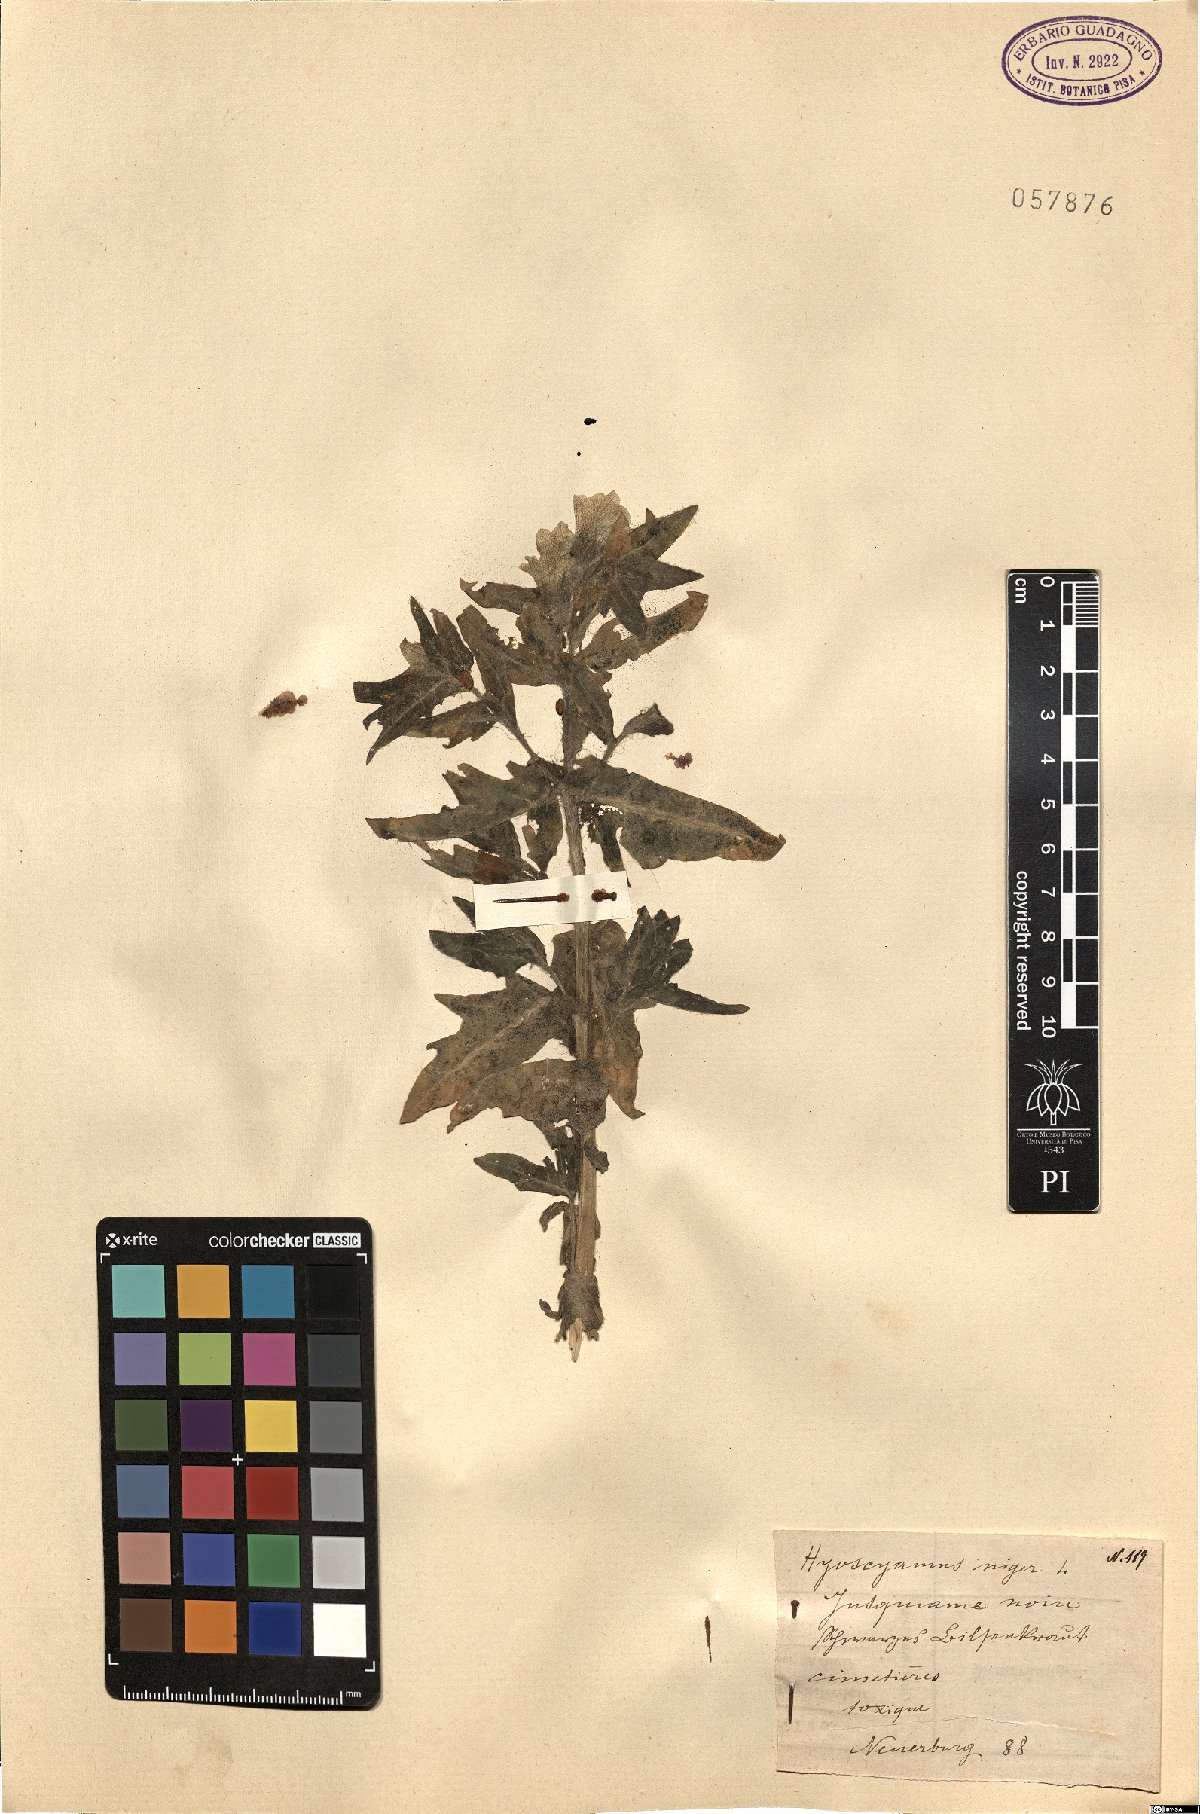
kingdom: Plantae
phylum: Tracheophyta
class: Magnoliopsida
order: Solanales
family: Solanaceae
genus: Hyoscyamus
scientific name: Hyoscyamus niger
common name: Henbane
